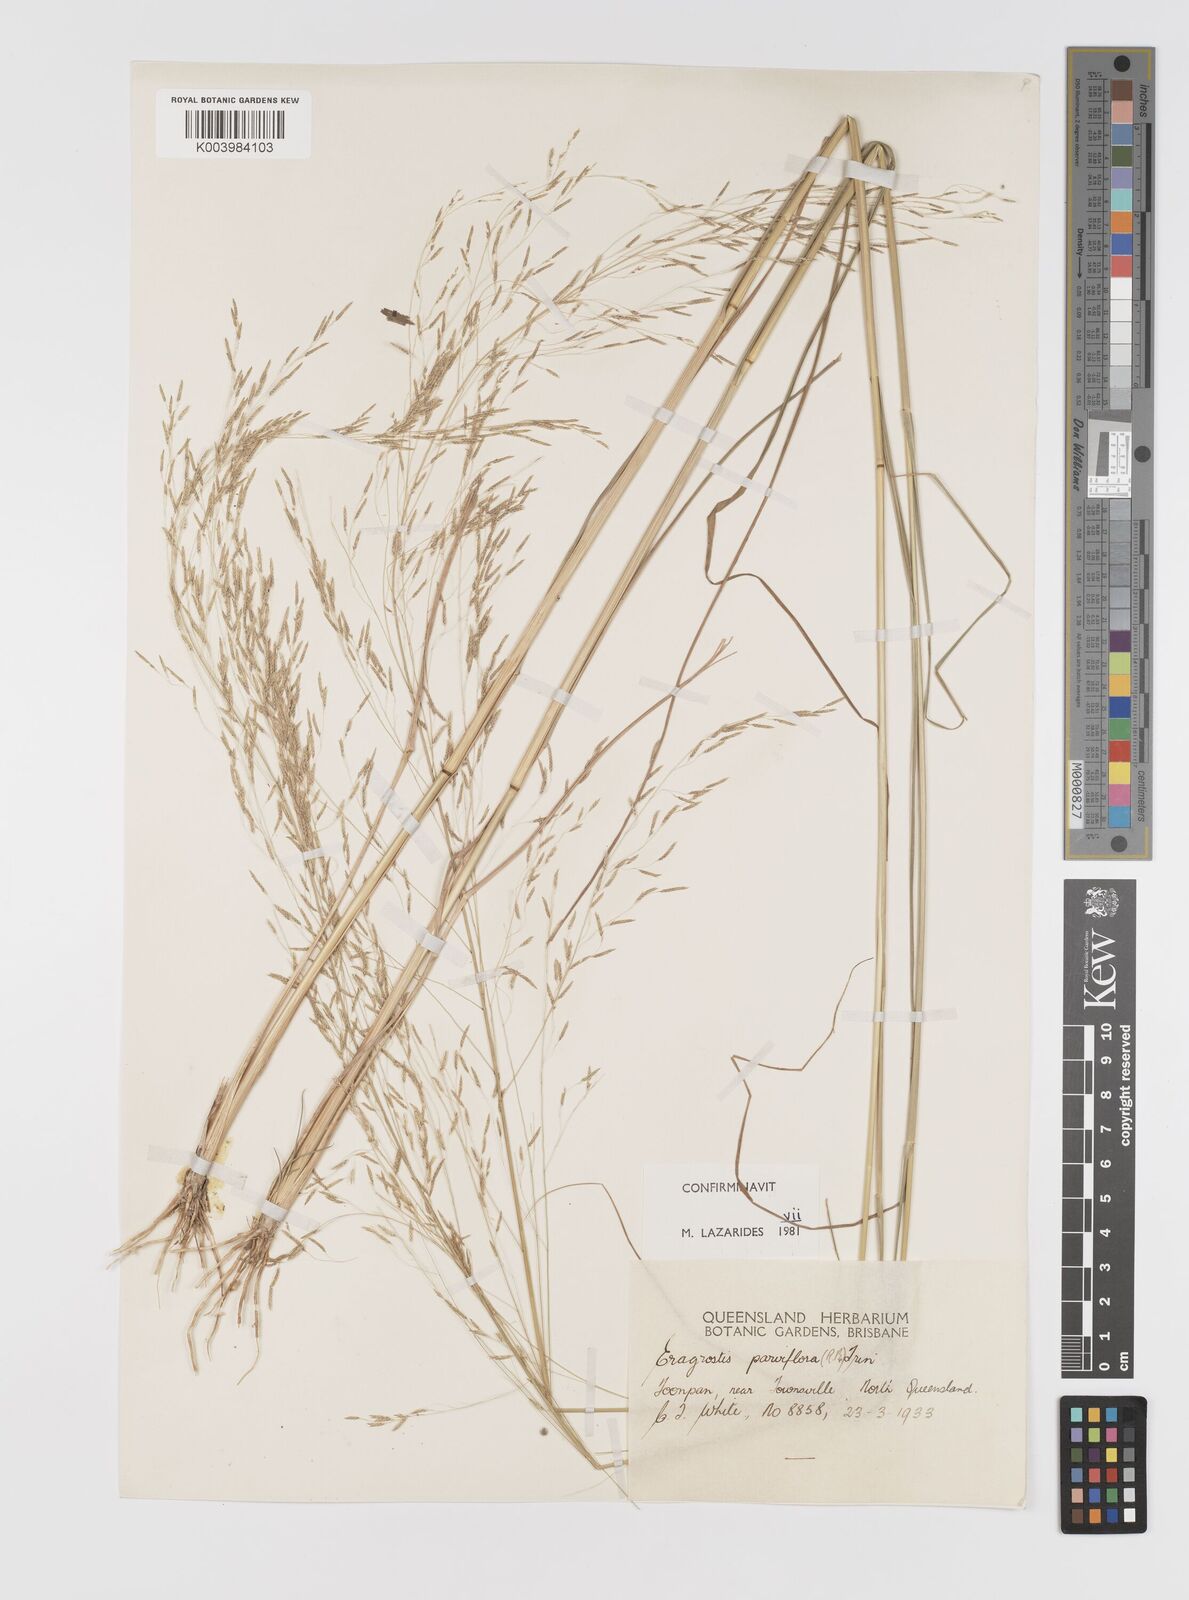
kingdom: Plantae
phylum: Tracheophyta
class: Liliopsida
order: Poales
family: Poaceae
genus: Eragrostis
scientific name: Eragrostis parviflora
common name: Weeping love-grass
